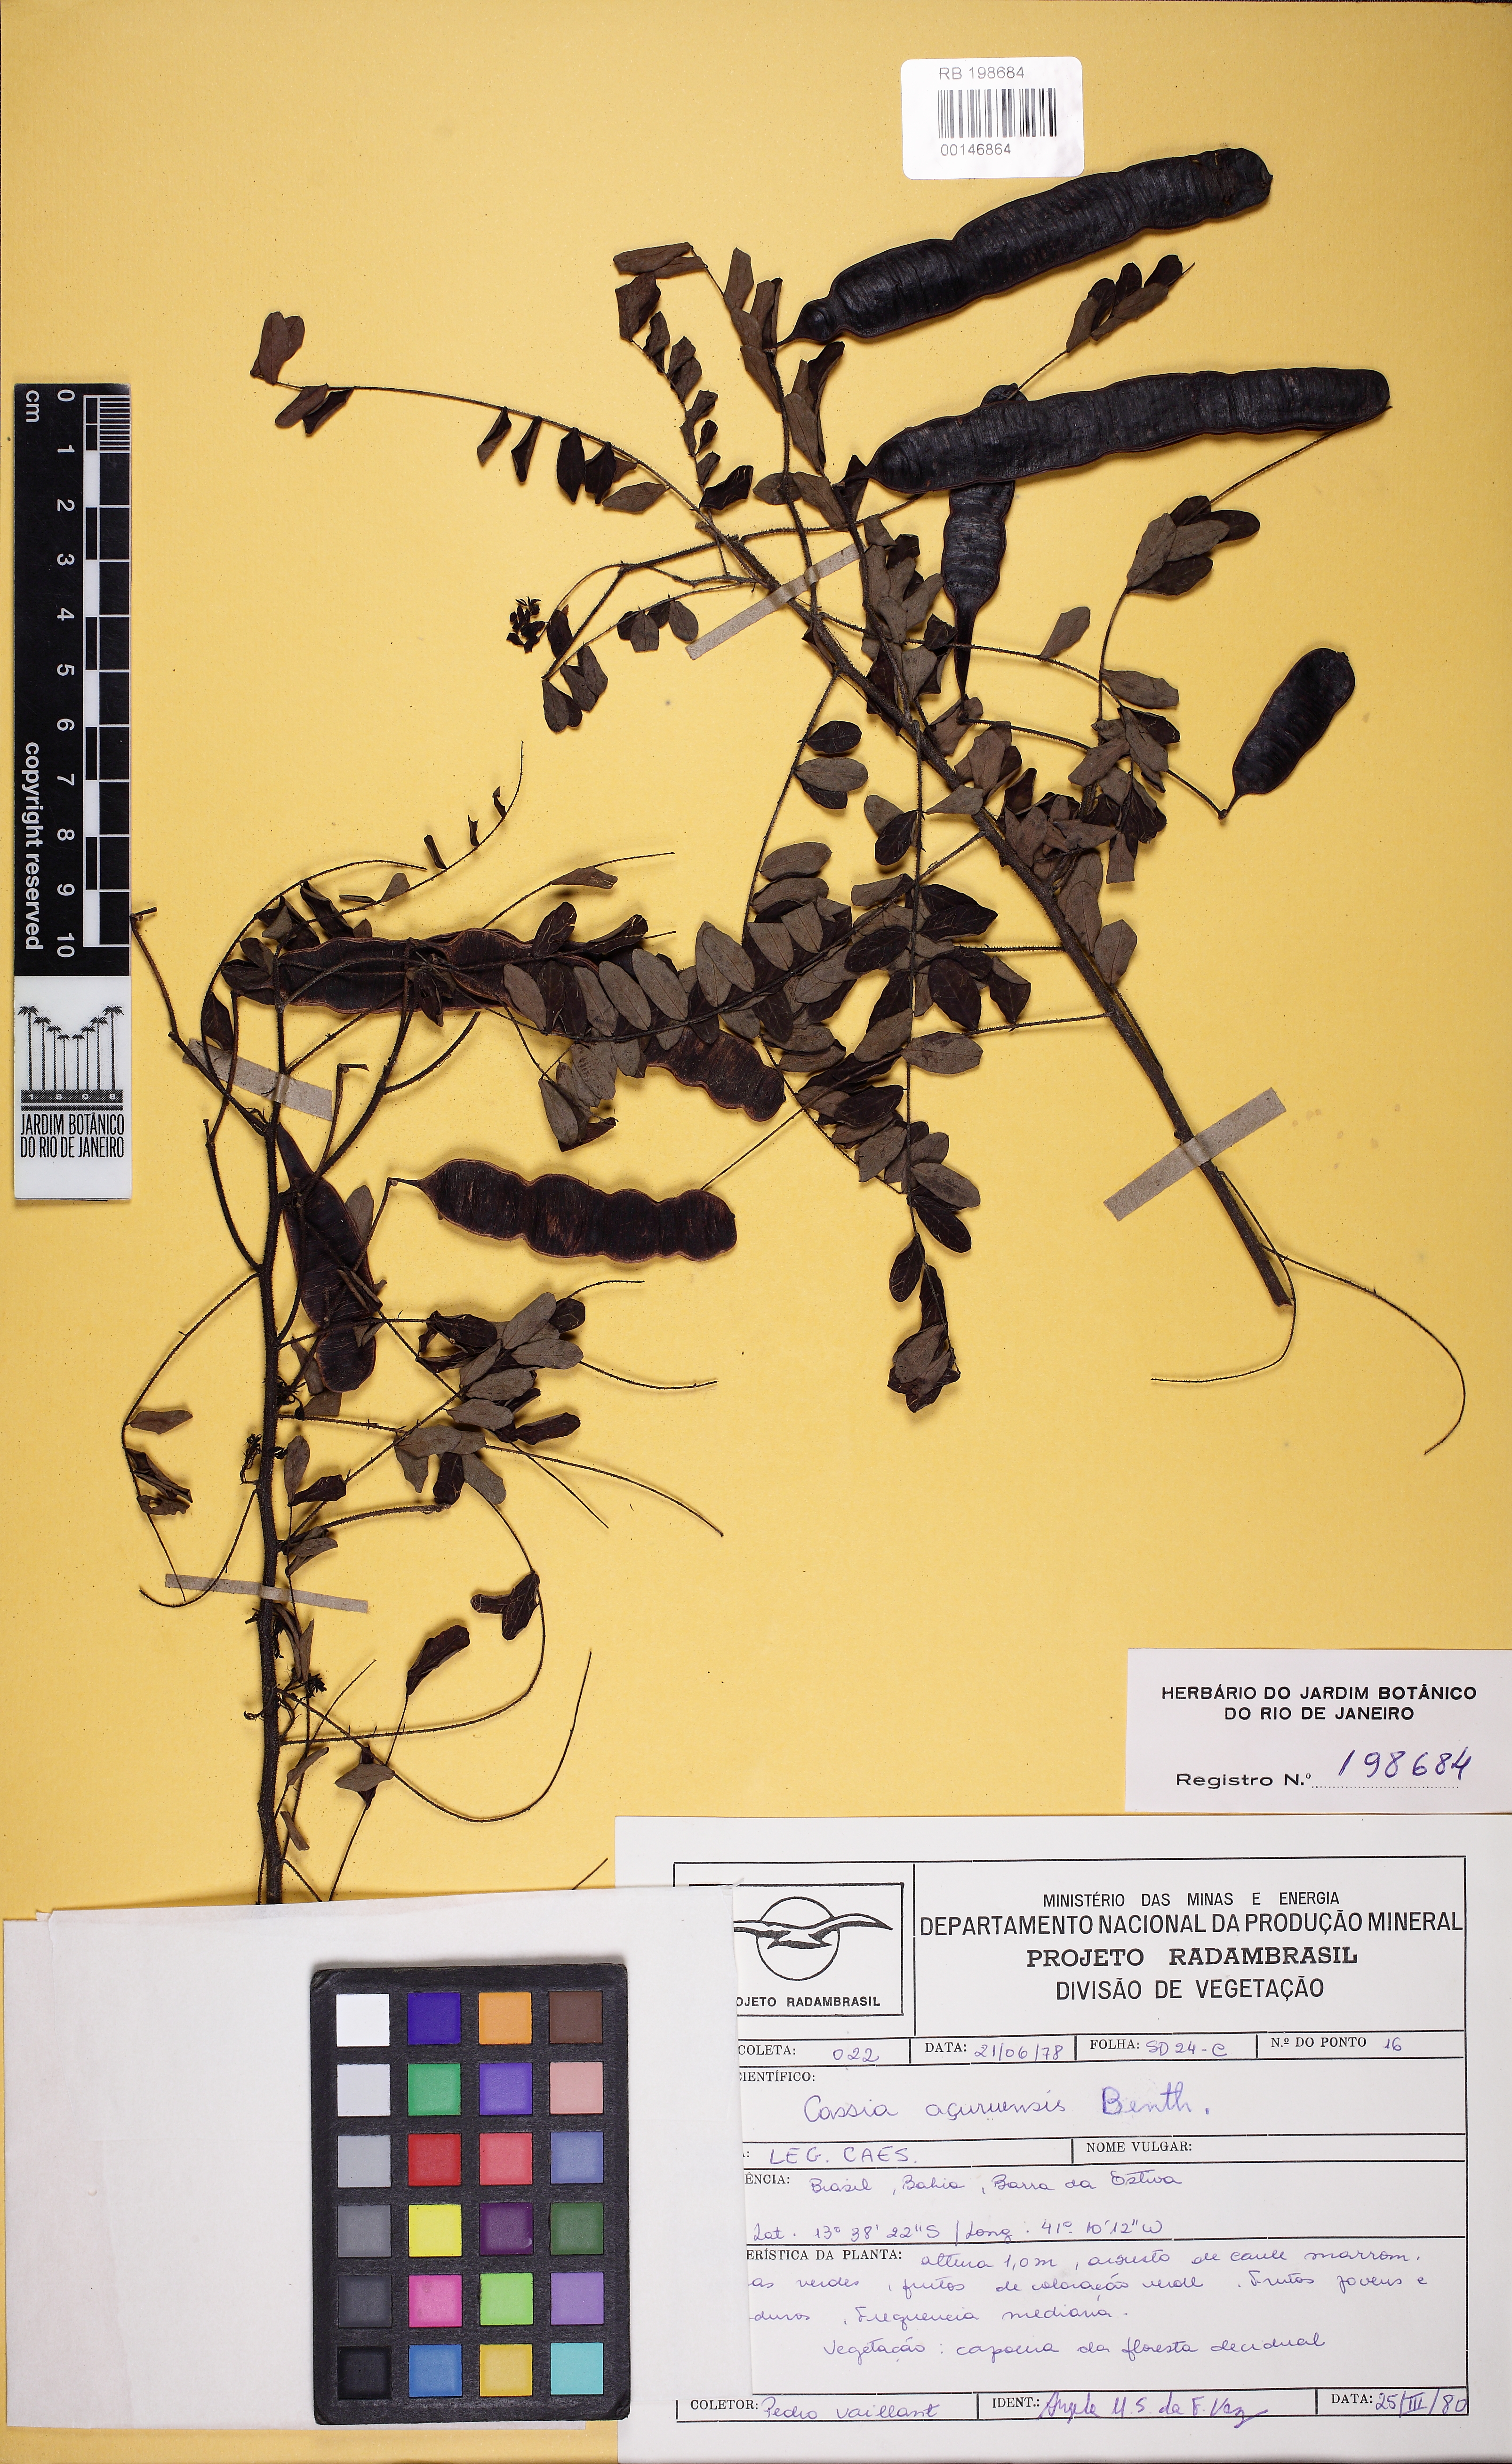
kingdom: Plantae
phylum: Tracheophyta
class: Magnoliopsida
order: Fabales
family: Fabaceae
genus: Senna
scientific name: Senna acuruensis
